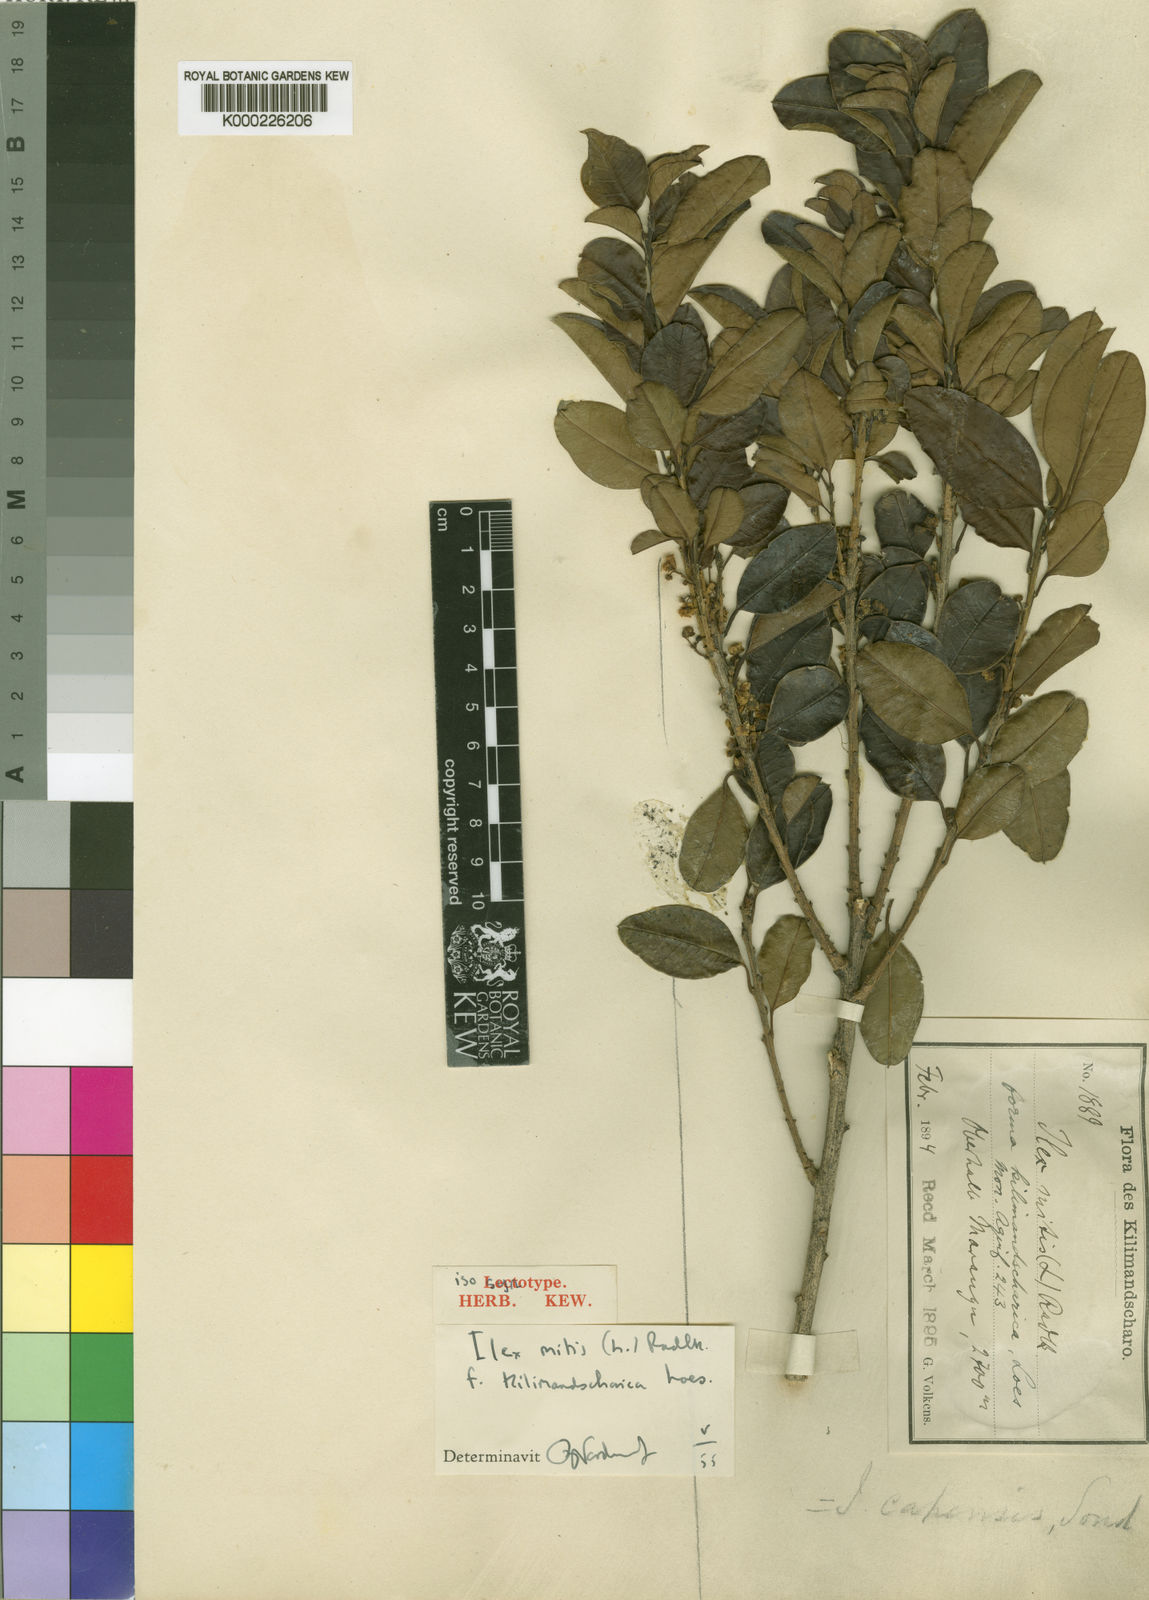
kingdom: Plantae
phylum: Tracheophyta
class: Magnoliopsida
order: Aquifoliales
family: Aquifoliaceae
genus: Ilex
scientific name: Ilex mitis
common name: African holly
